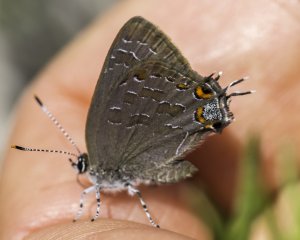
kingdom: Animalia
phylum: Arthropoda
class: Insecta
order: Lepidoptera
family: Lycaenidae
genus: Satyrium
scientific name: Satyrium liparops
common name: Striped Hairstreak
